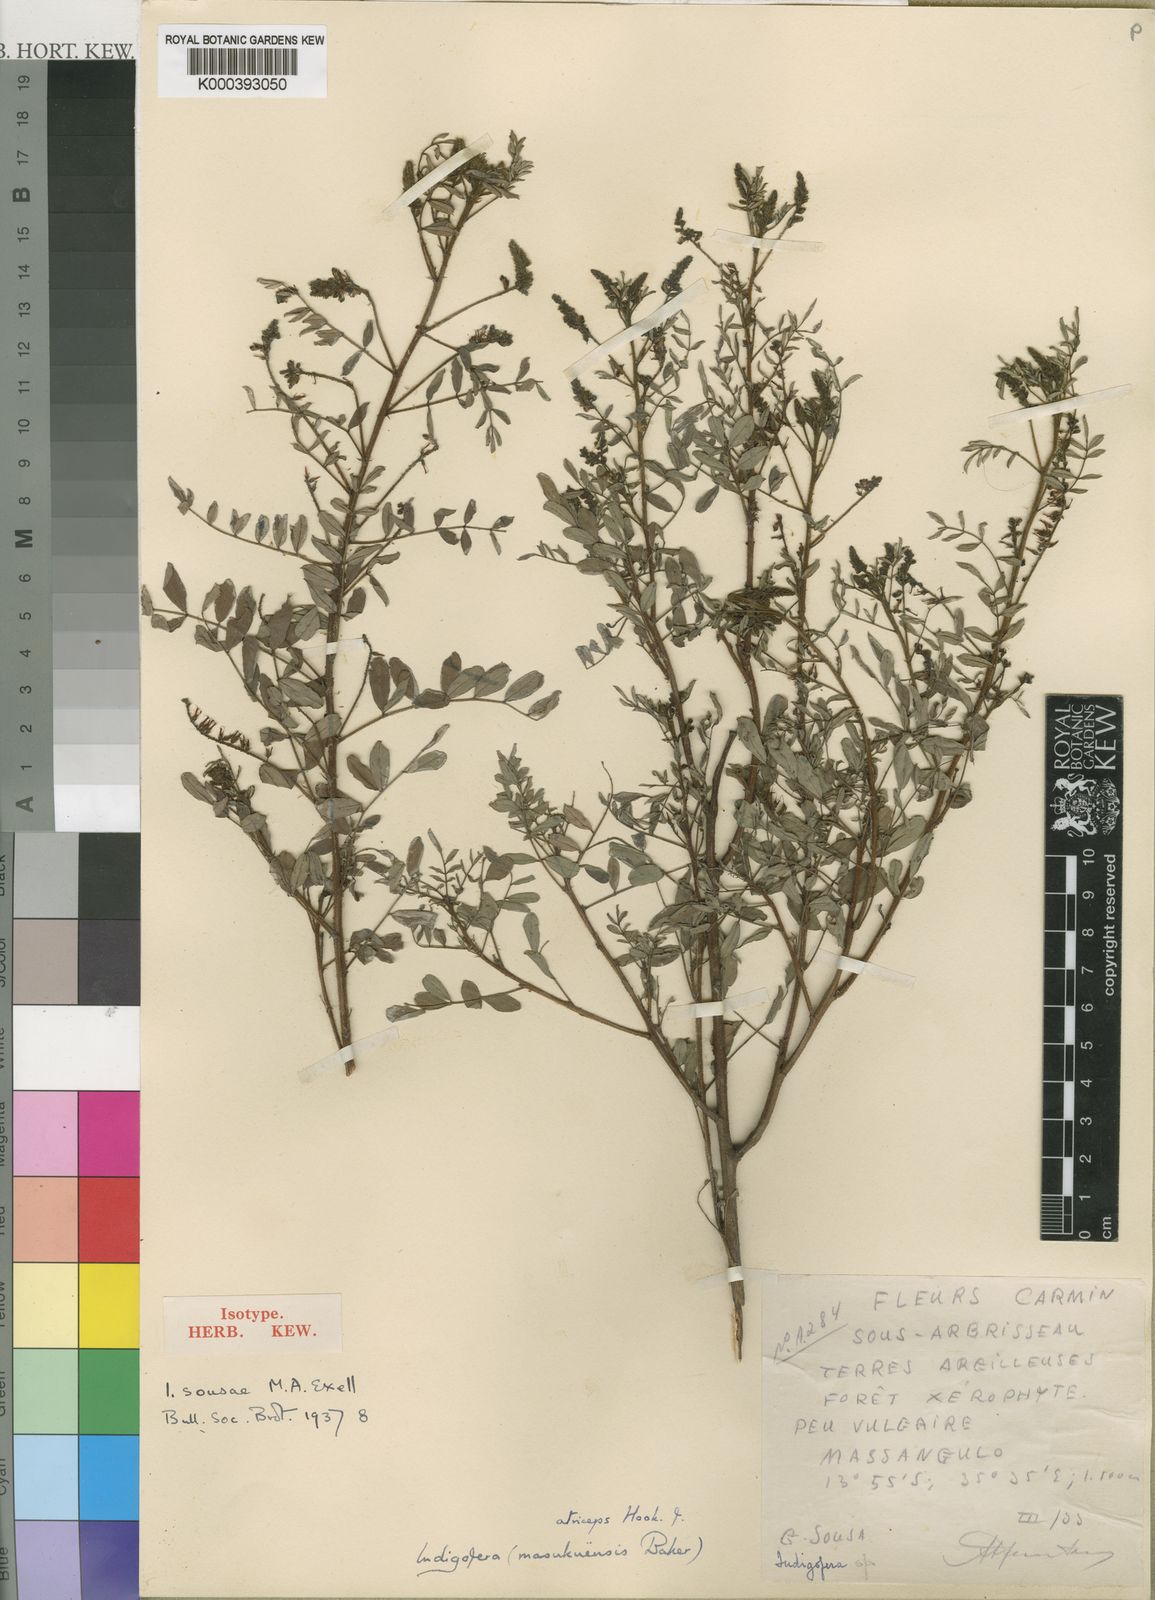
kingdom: Plantae
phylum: Tracheophyta
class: Magnoliopsida
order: Fabales
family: Fabaceae
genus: Indigofera
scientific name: Indigofera atriceps
